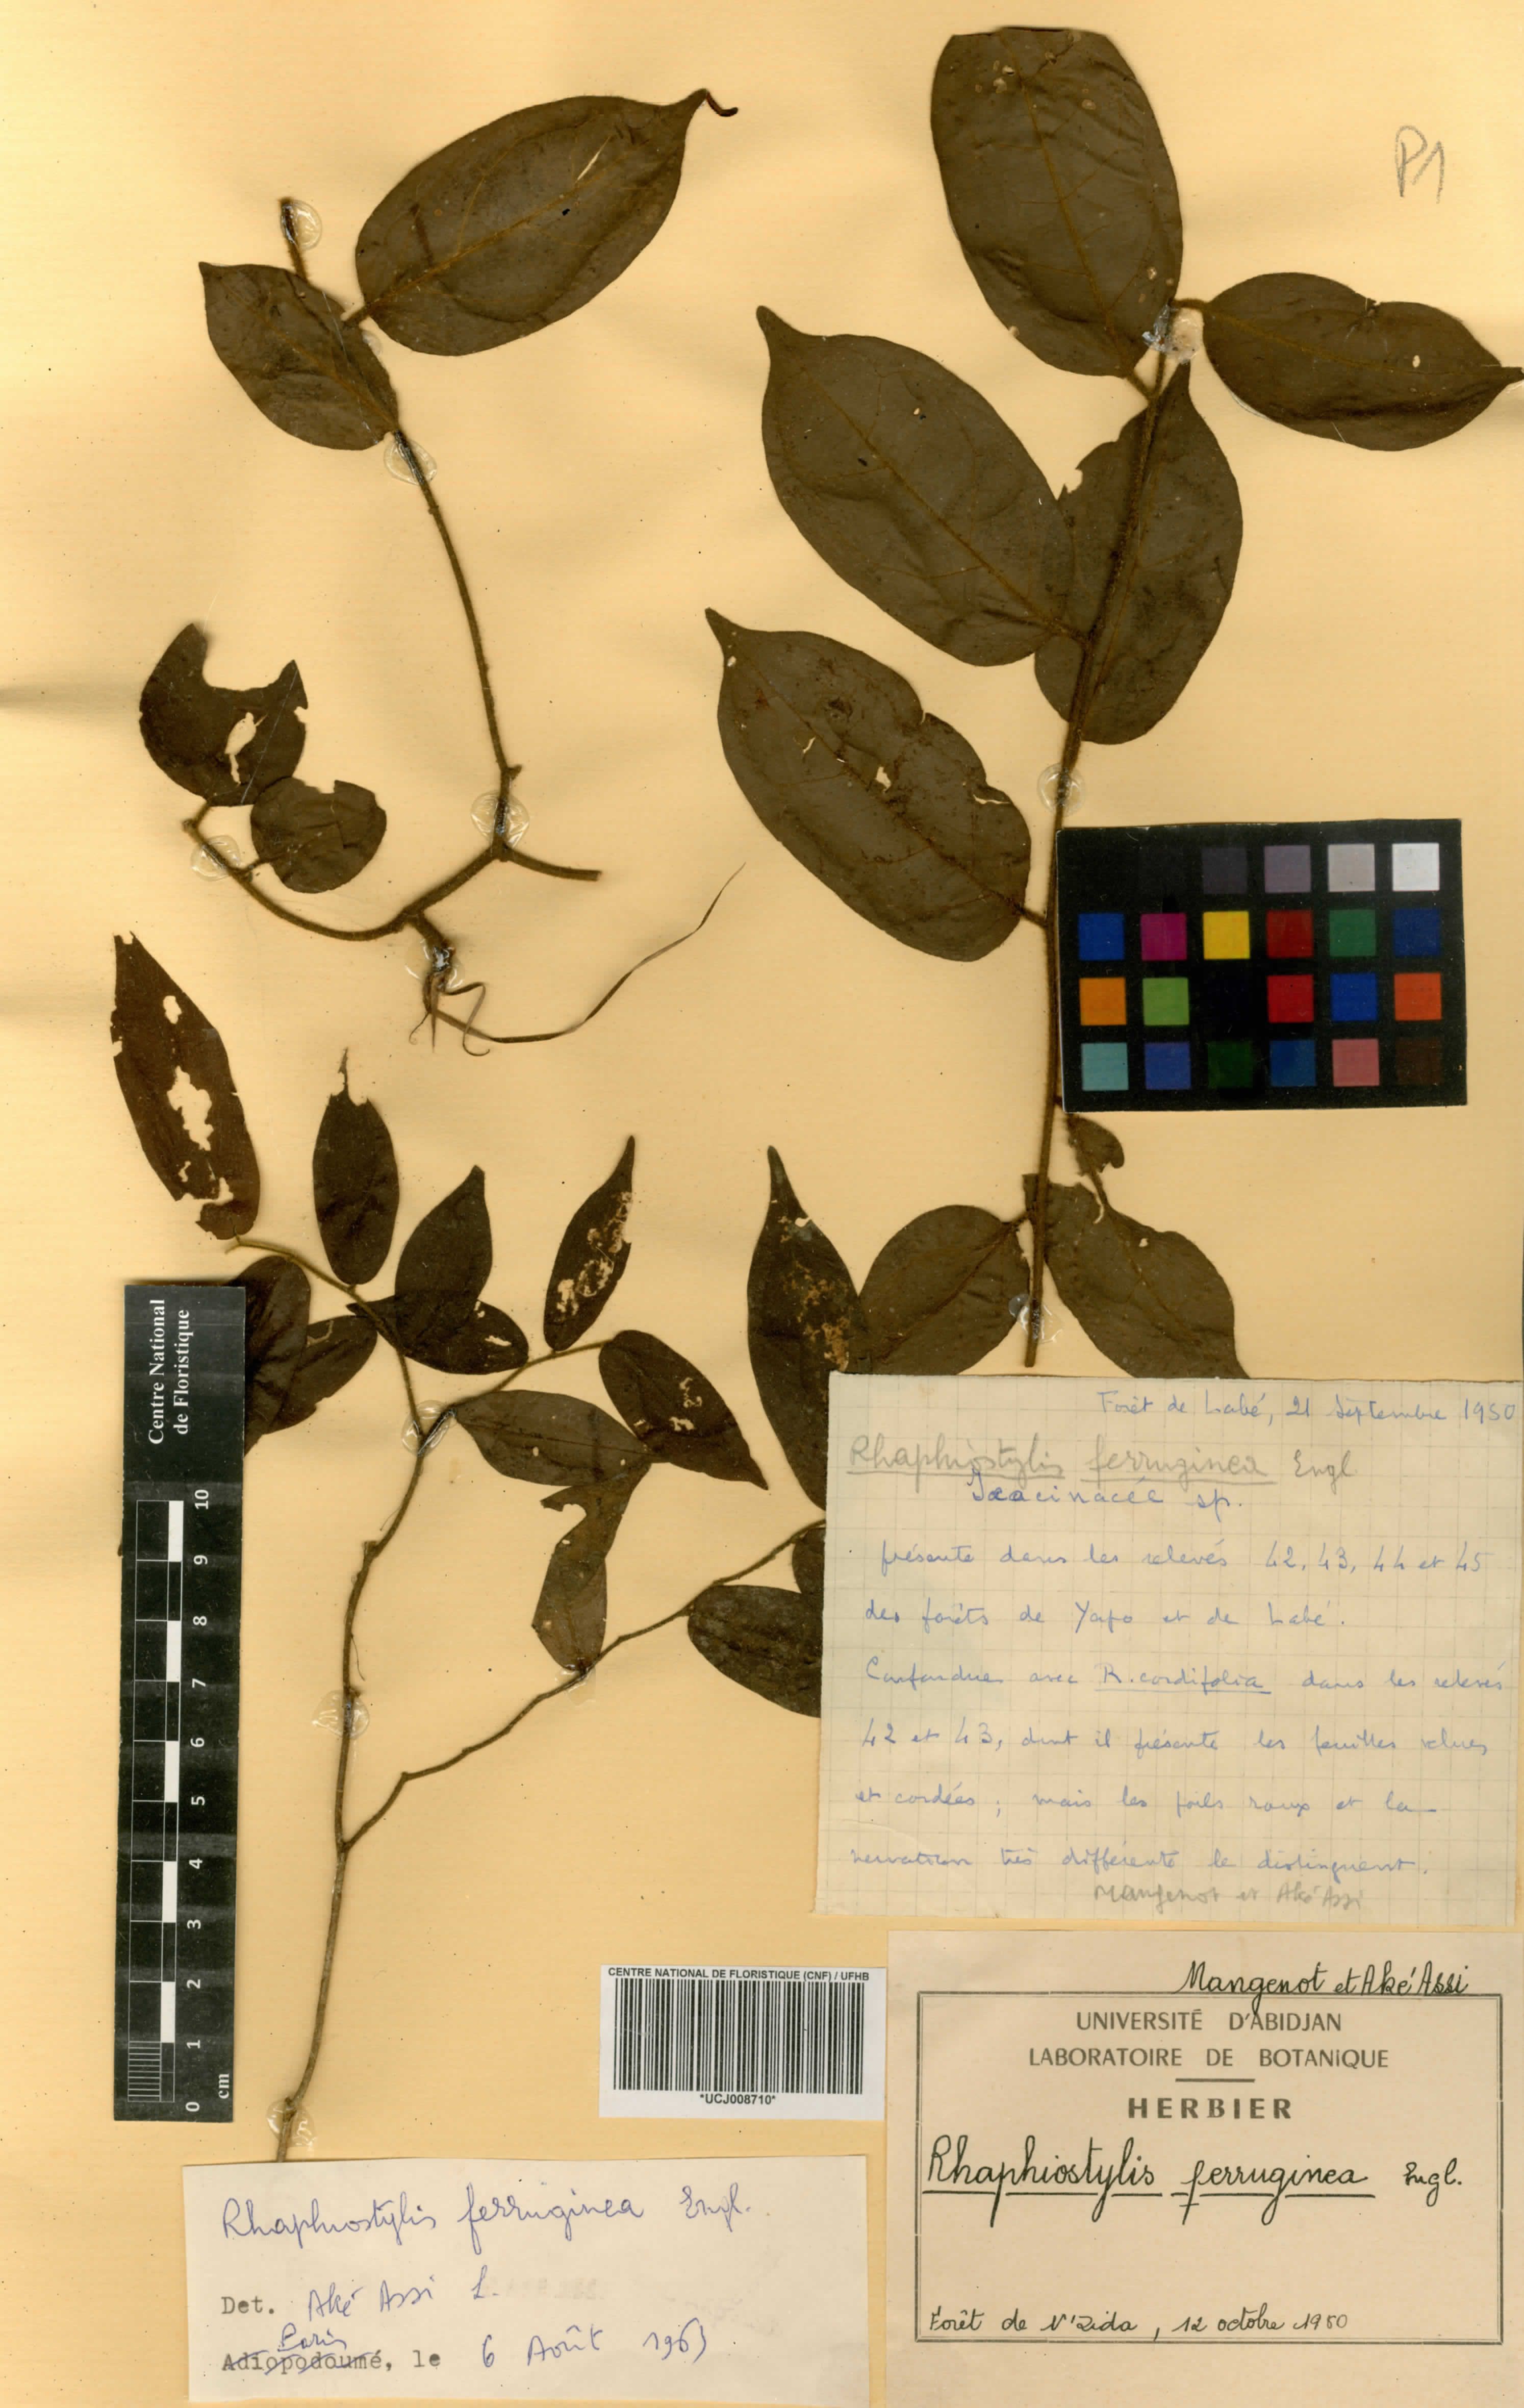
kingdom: Plantae
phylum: Tracheophyta
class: Magnoliopsida
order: Metteniusales
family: Metteniusaceae
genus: Rhaphiostylis
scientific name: Rhaphiostylis ferruginea
